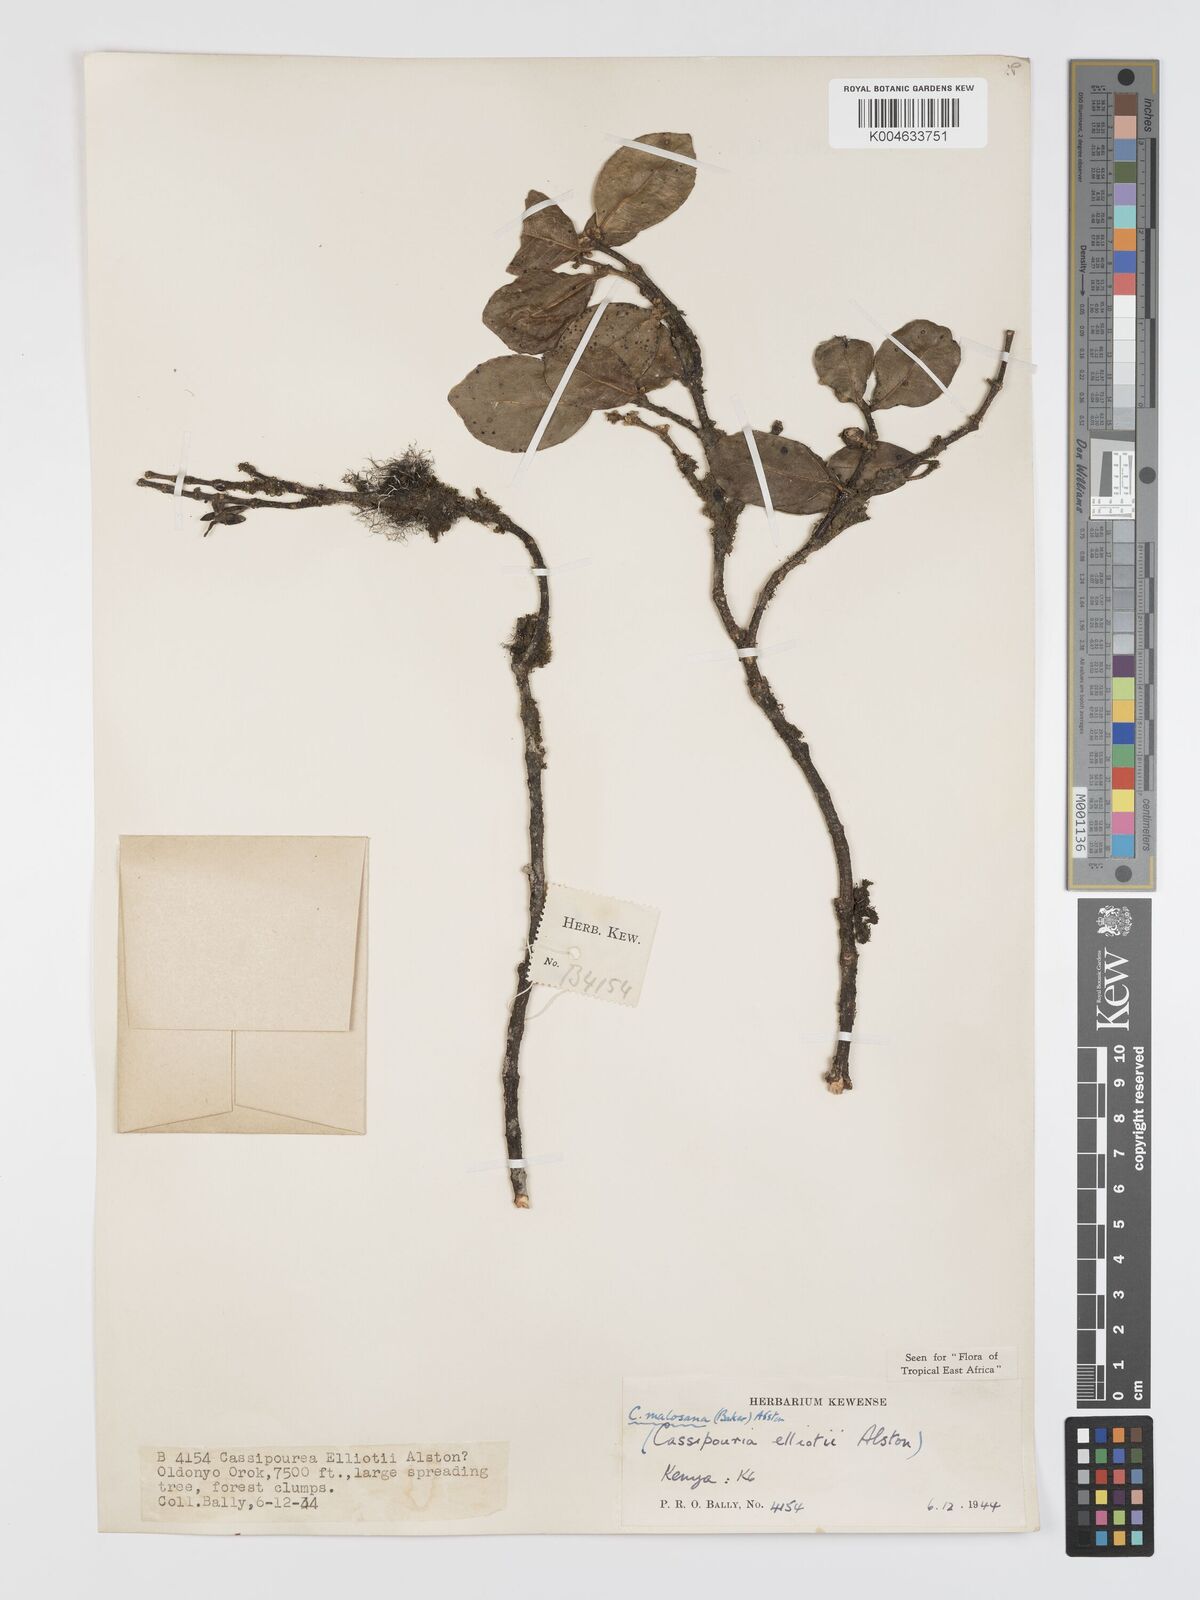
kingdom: Plantae
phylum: Tracheophyta
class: Magnoliopsida
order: Malpighiales
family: Rhizophoraceae
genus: Cassipourea
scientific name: Cassipourea
